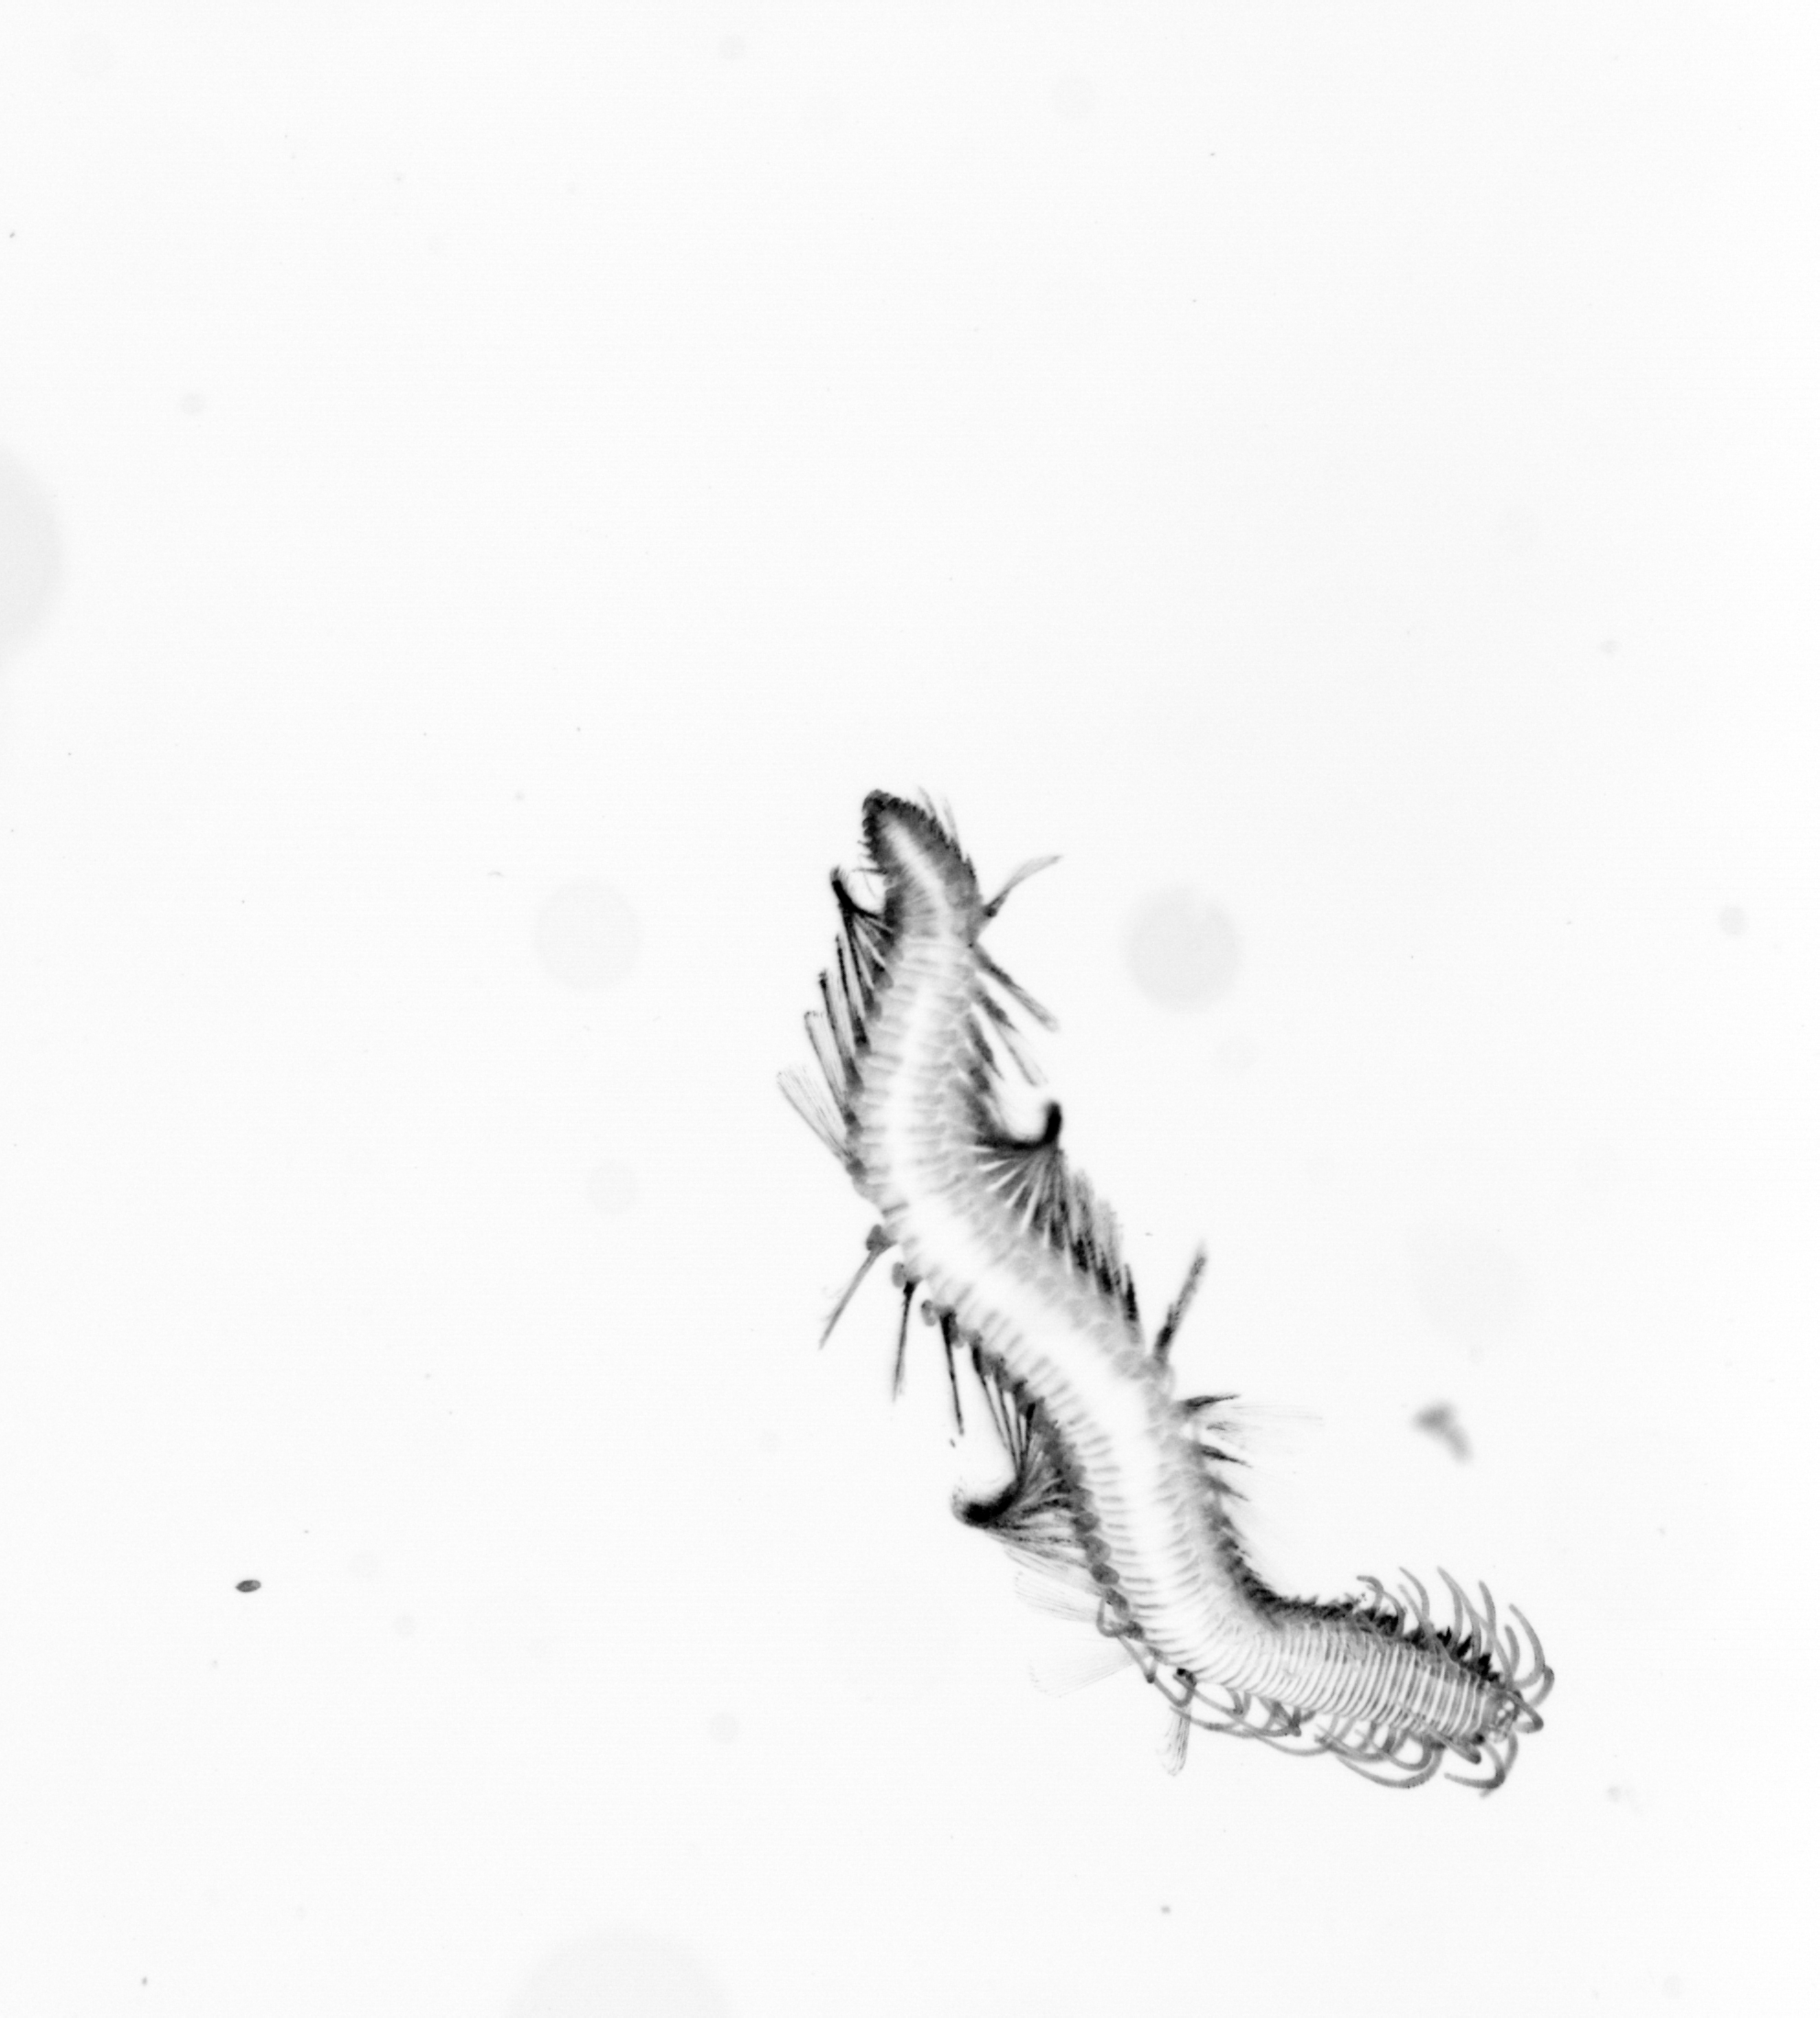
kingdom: Animalia
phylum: Annelida
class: Polychaeta
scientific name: Polychaeta
